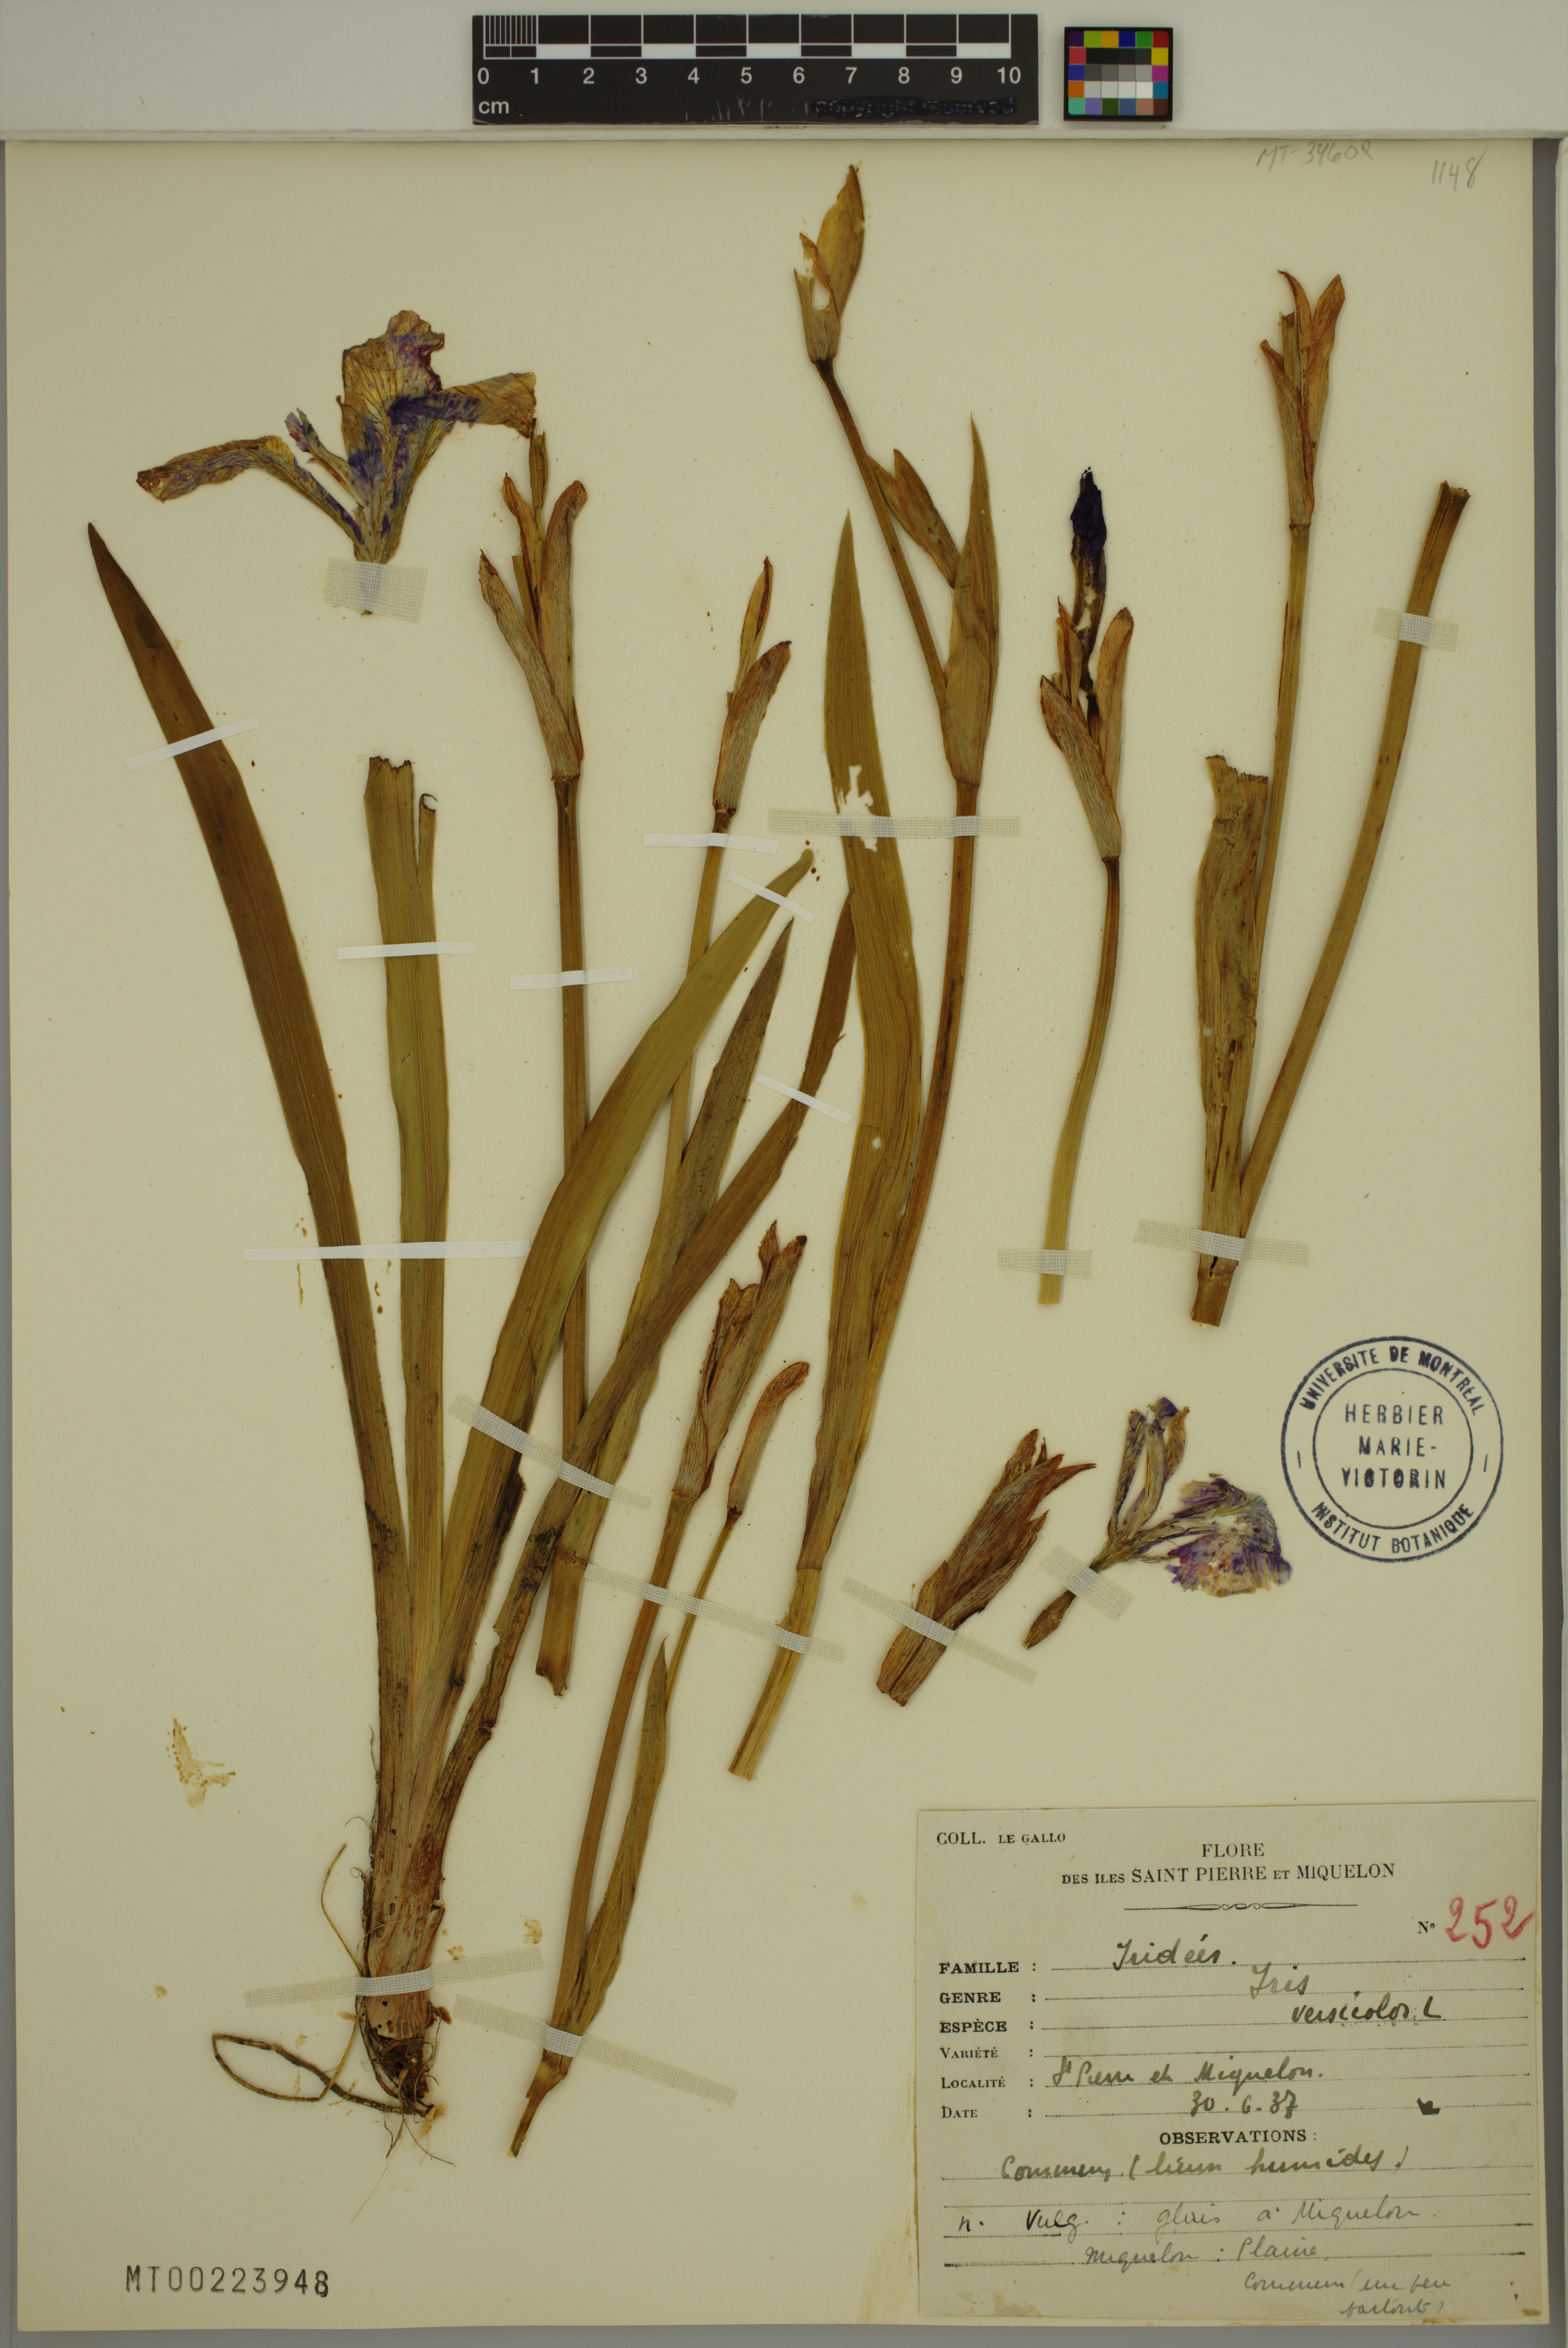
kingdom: Plantae
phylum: Tracheophyta
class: Liliopsida
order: Asparagales
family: Iridaceae
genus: Iris
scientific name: Iris versicolor
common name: Purple iris
